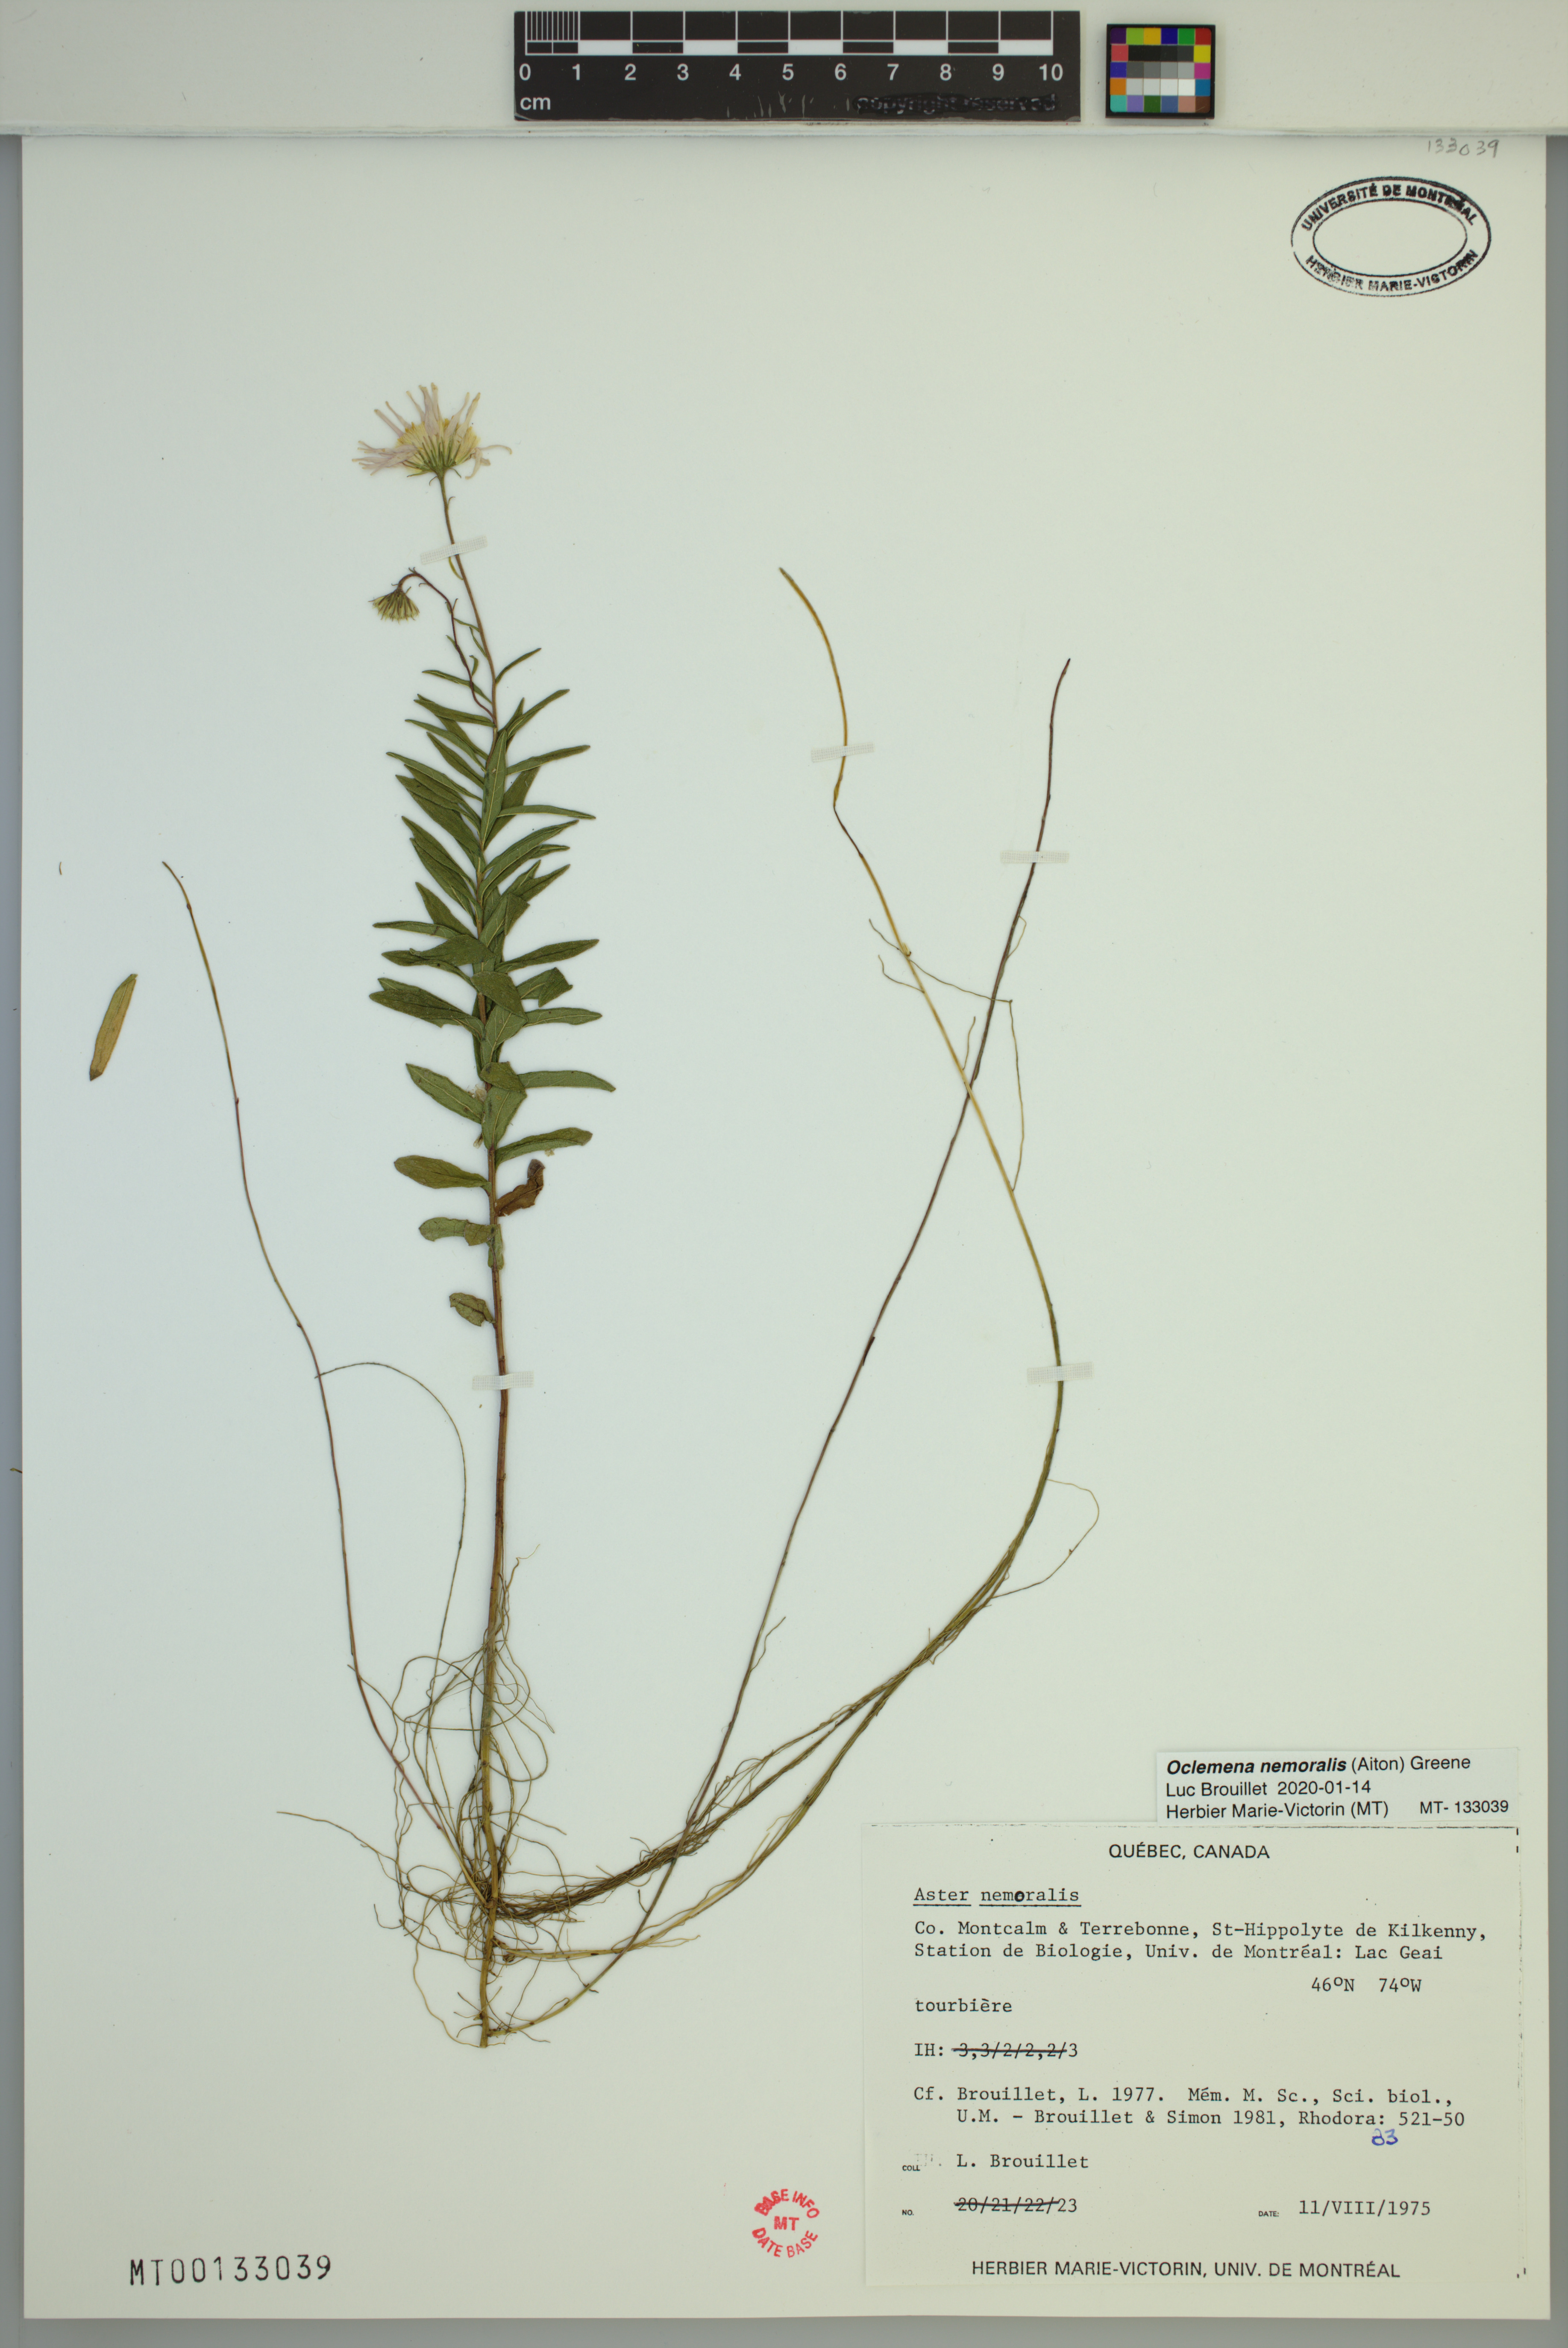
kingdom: Plantae
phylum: Tracheophyta
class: Magnoliopsida
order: Asterales
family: Asteraceae
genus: Oclemena
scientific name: Oclemena nemoralis
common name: Bog aster
